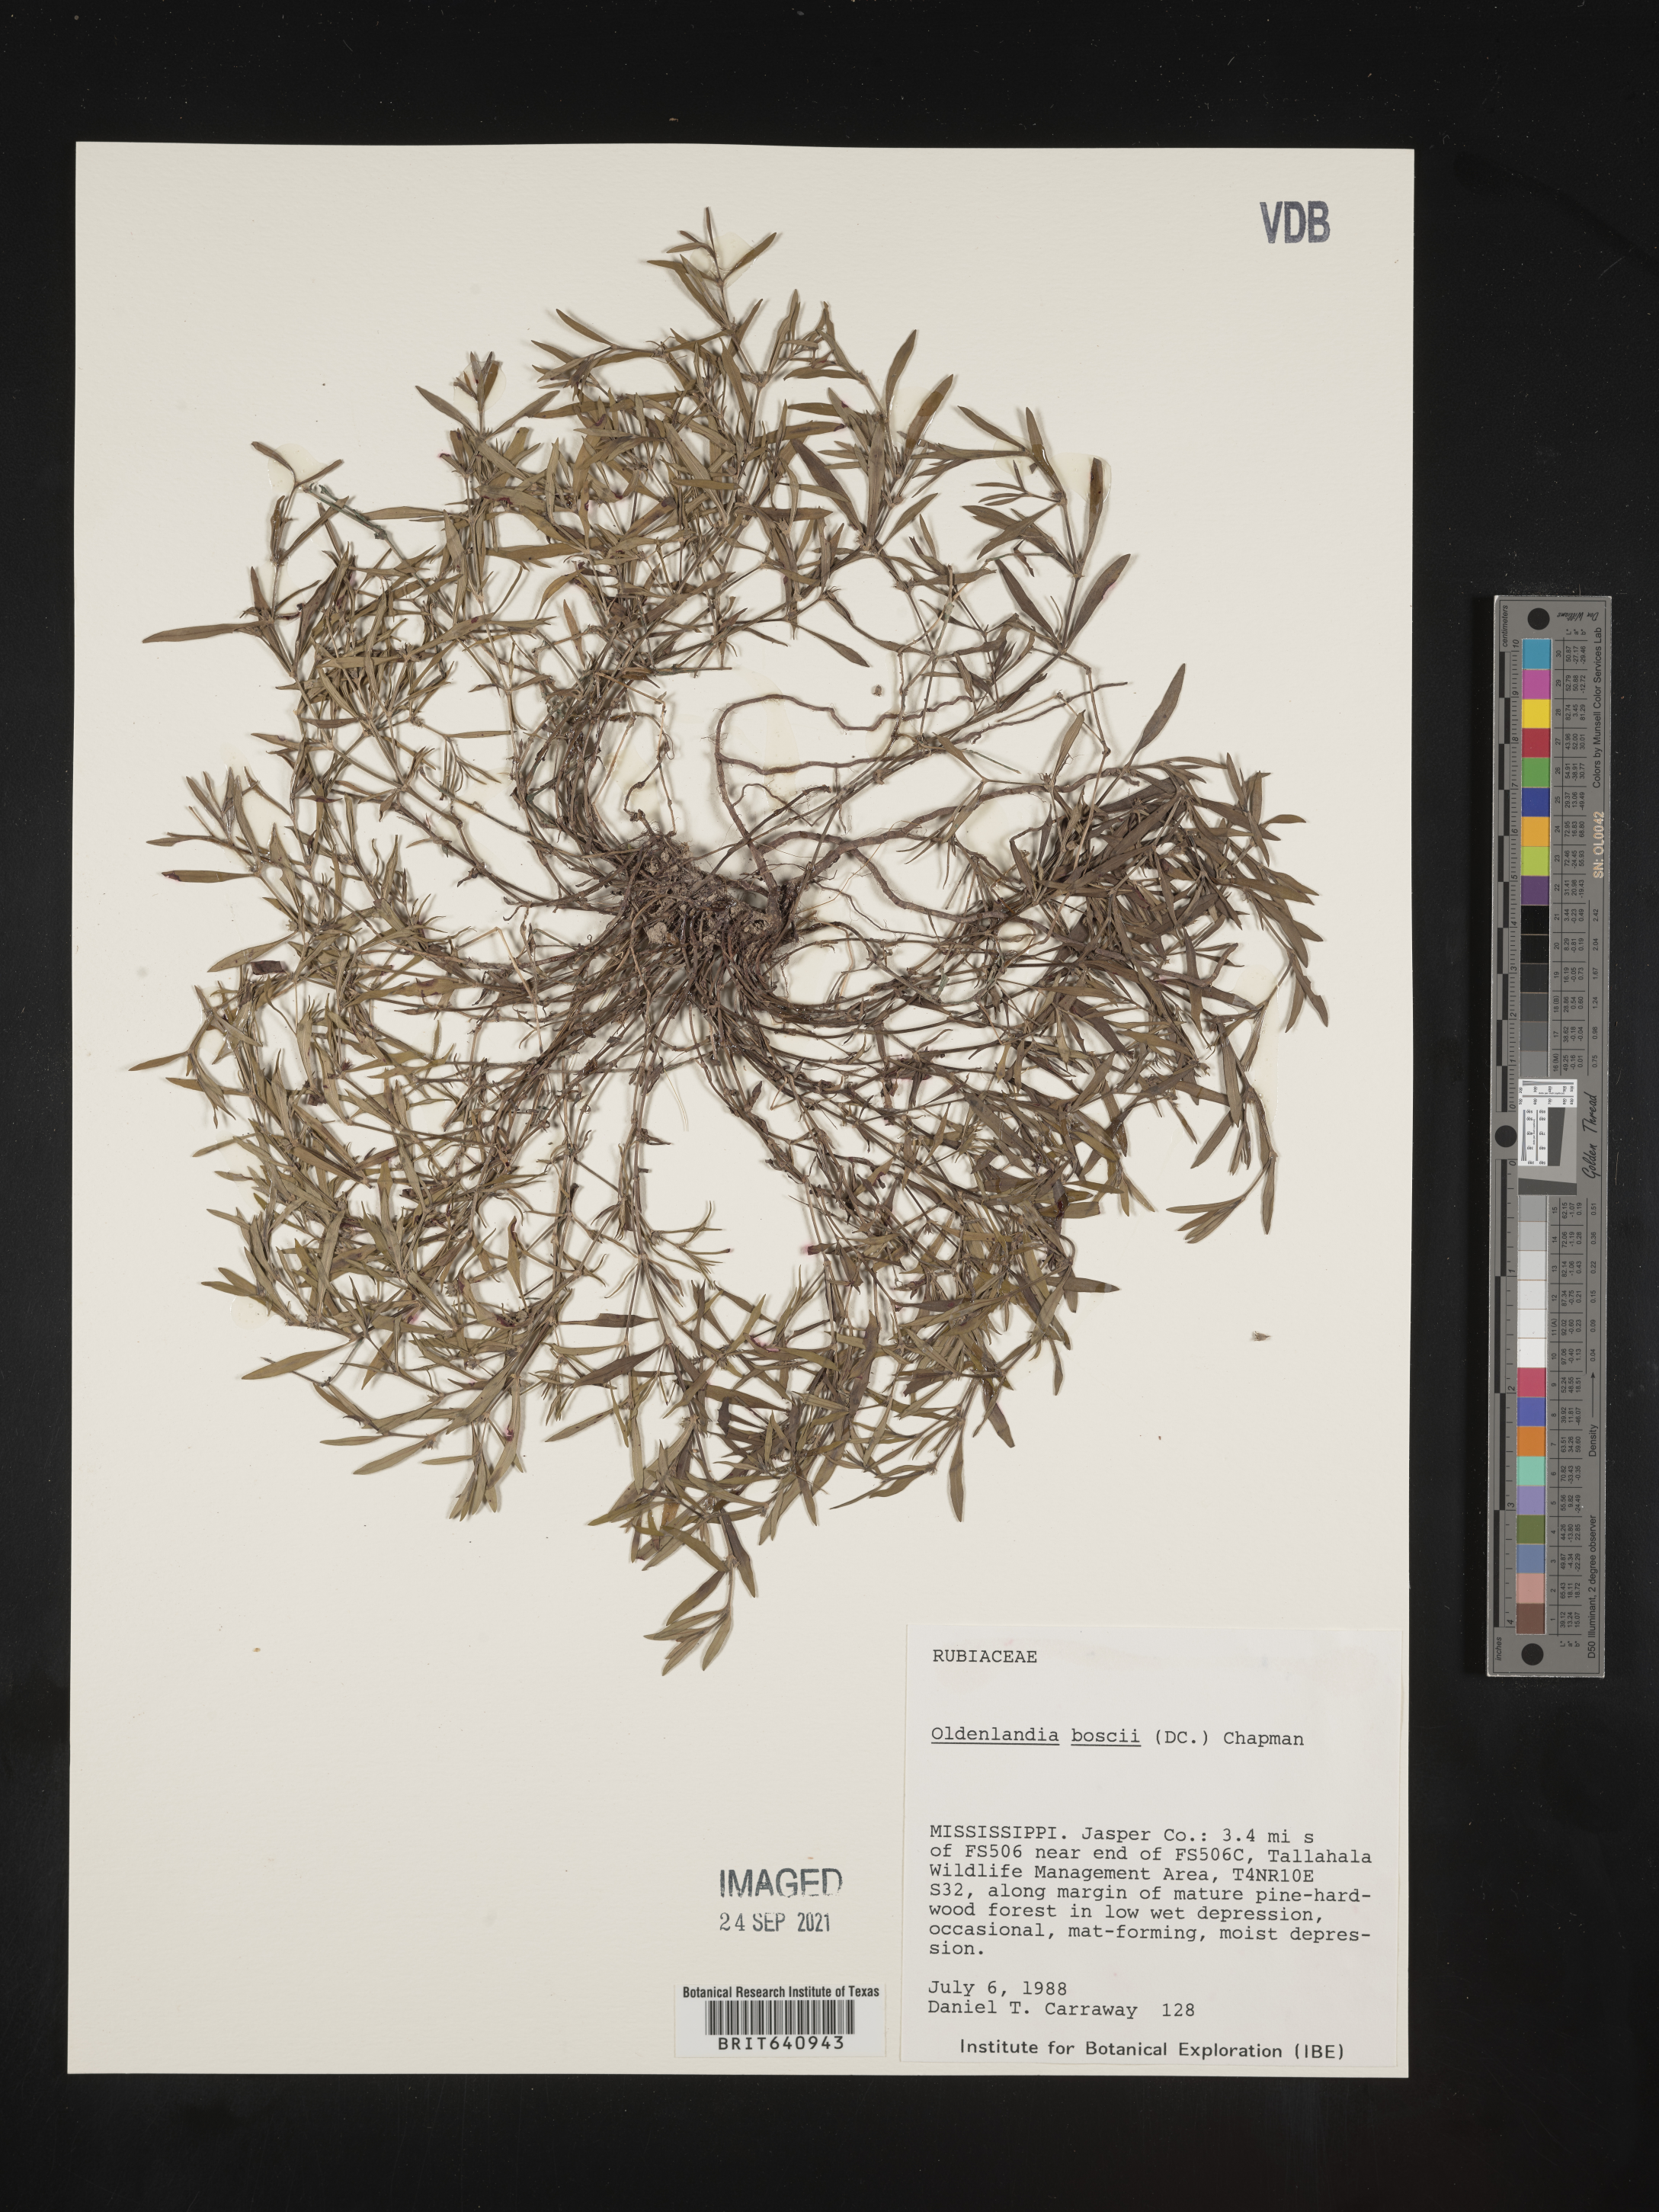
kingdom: Plantae
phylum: Tracheophyta
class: Magnoliopsida
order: Gentianales
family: Rubiaceae
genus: Oldenlandia
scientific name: Oldenlandia boscii
